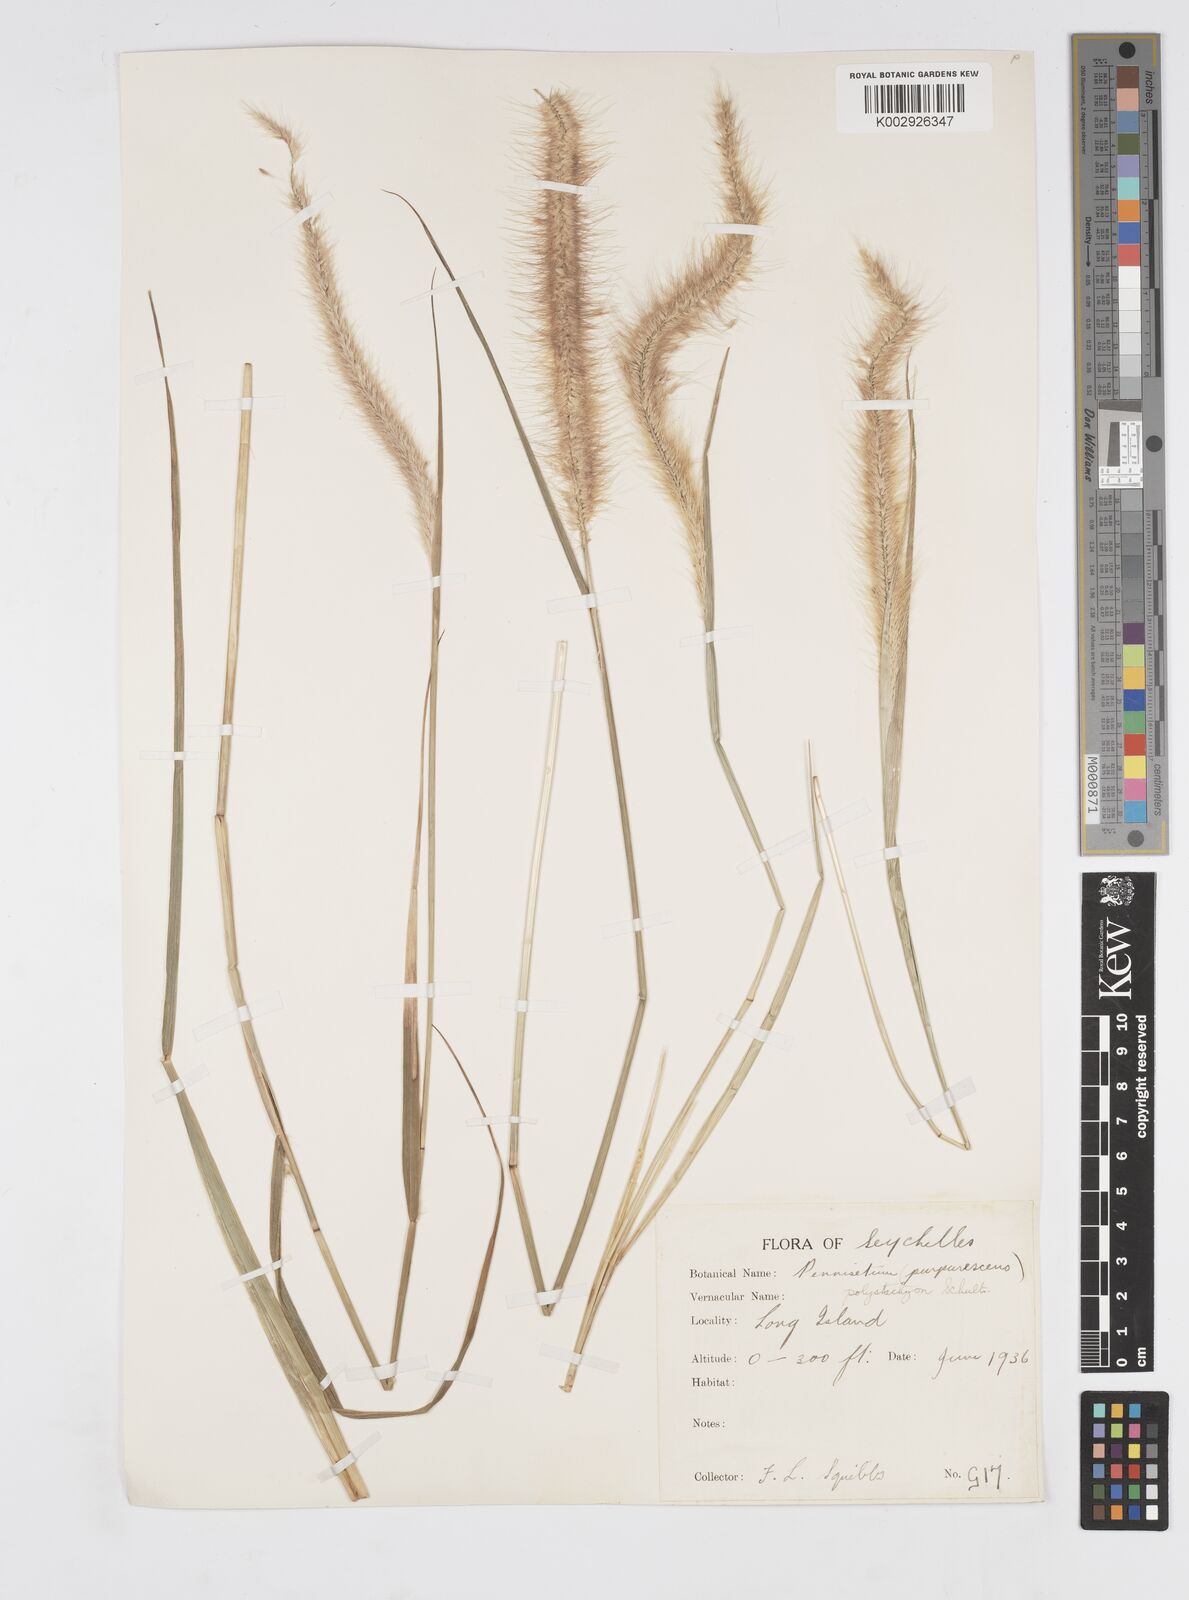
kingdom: Plantae
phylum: Tracheophyta
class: Liliopsida
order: Poales
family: Poaceae
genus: Setaria
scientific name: Setaria parviflora
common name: Knotroot bristle-grass
